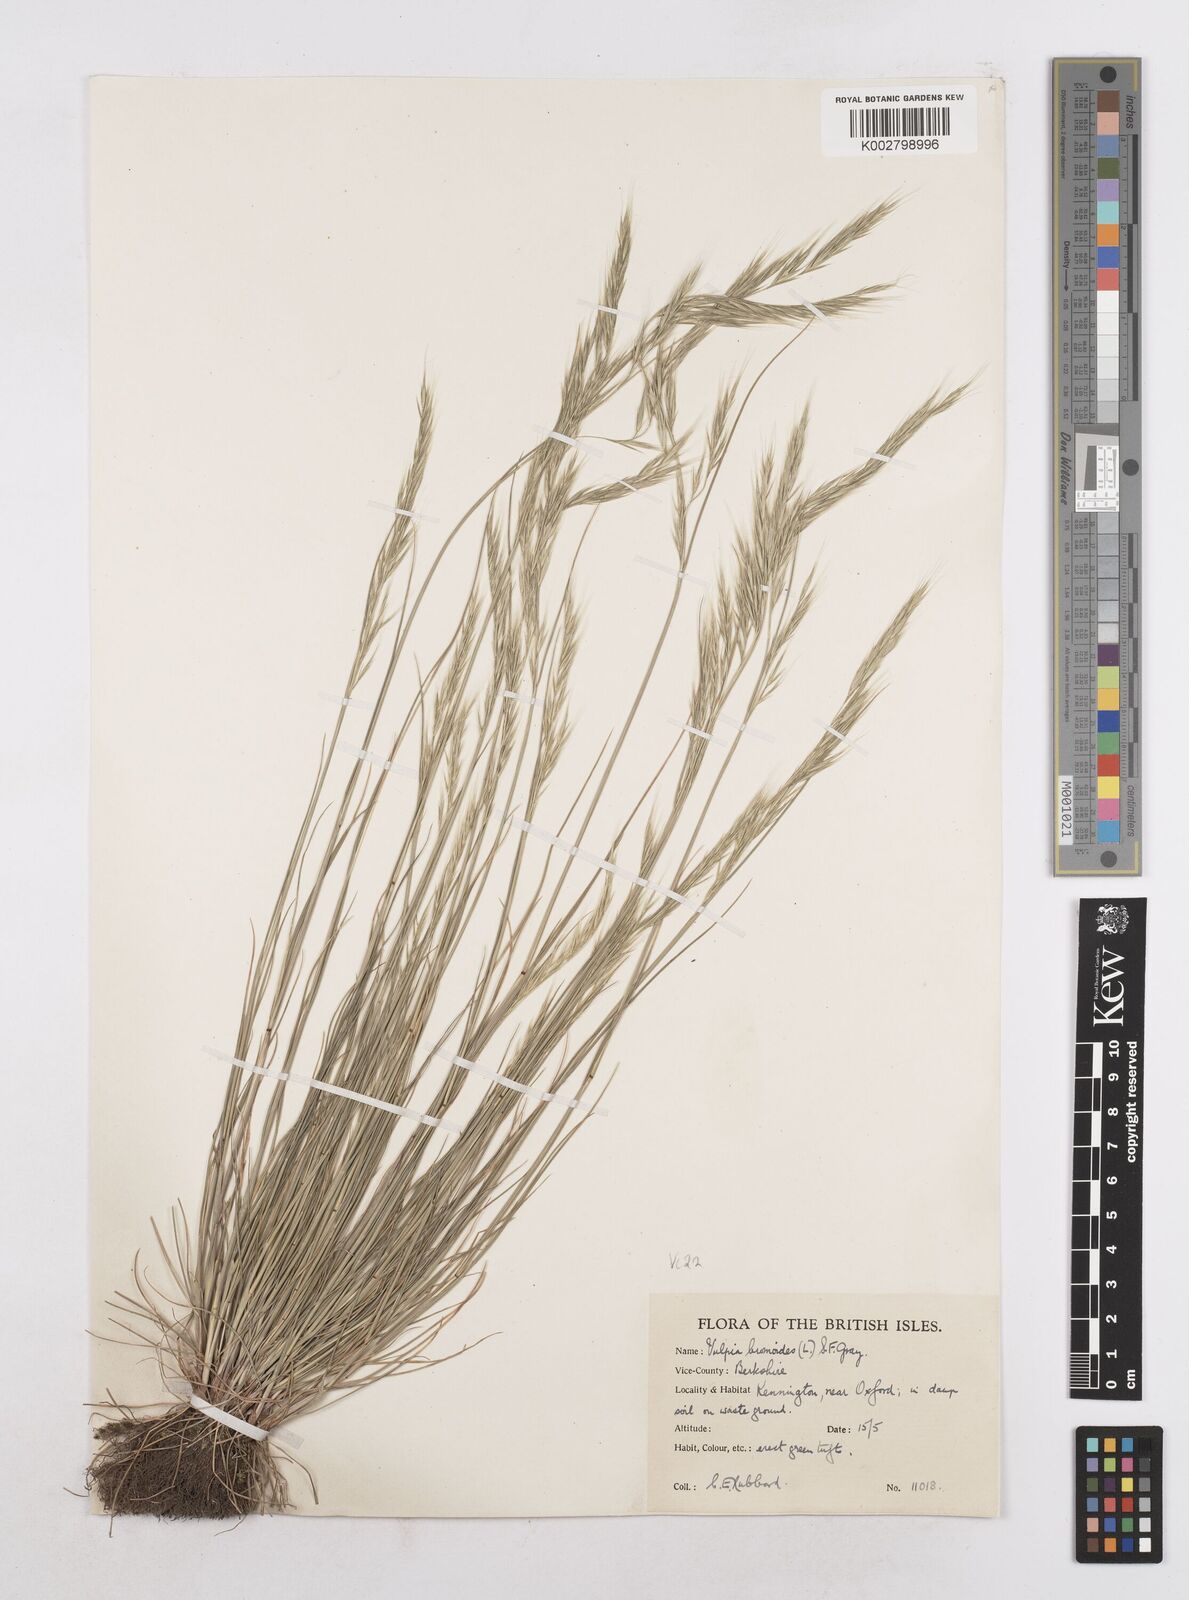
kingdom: Plantae
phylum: Tracheophyta
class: Liliopsida
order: Poales
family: Poaceae
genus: Festuca
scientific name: Festuca bromoides
